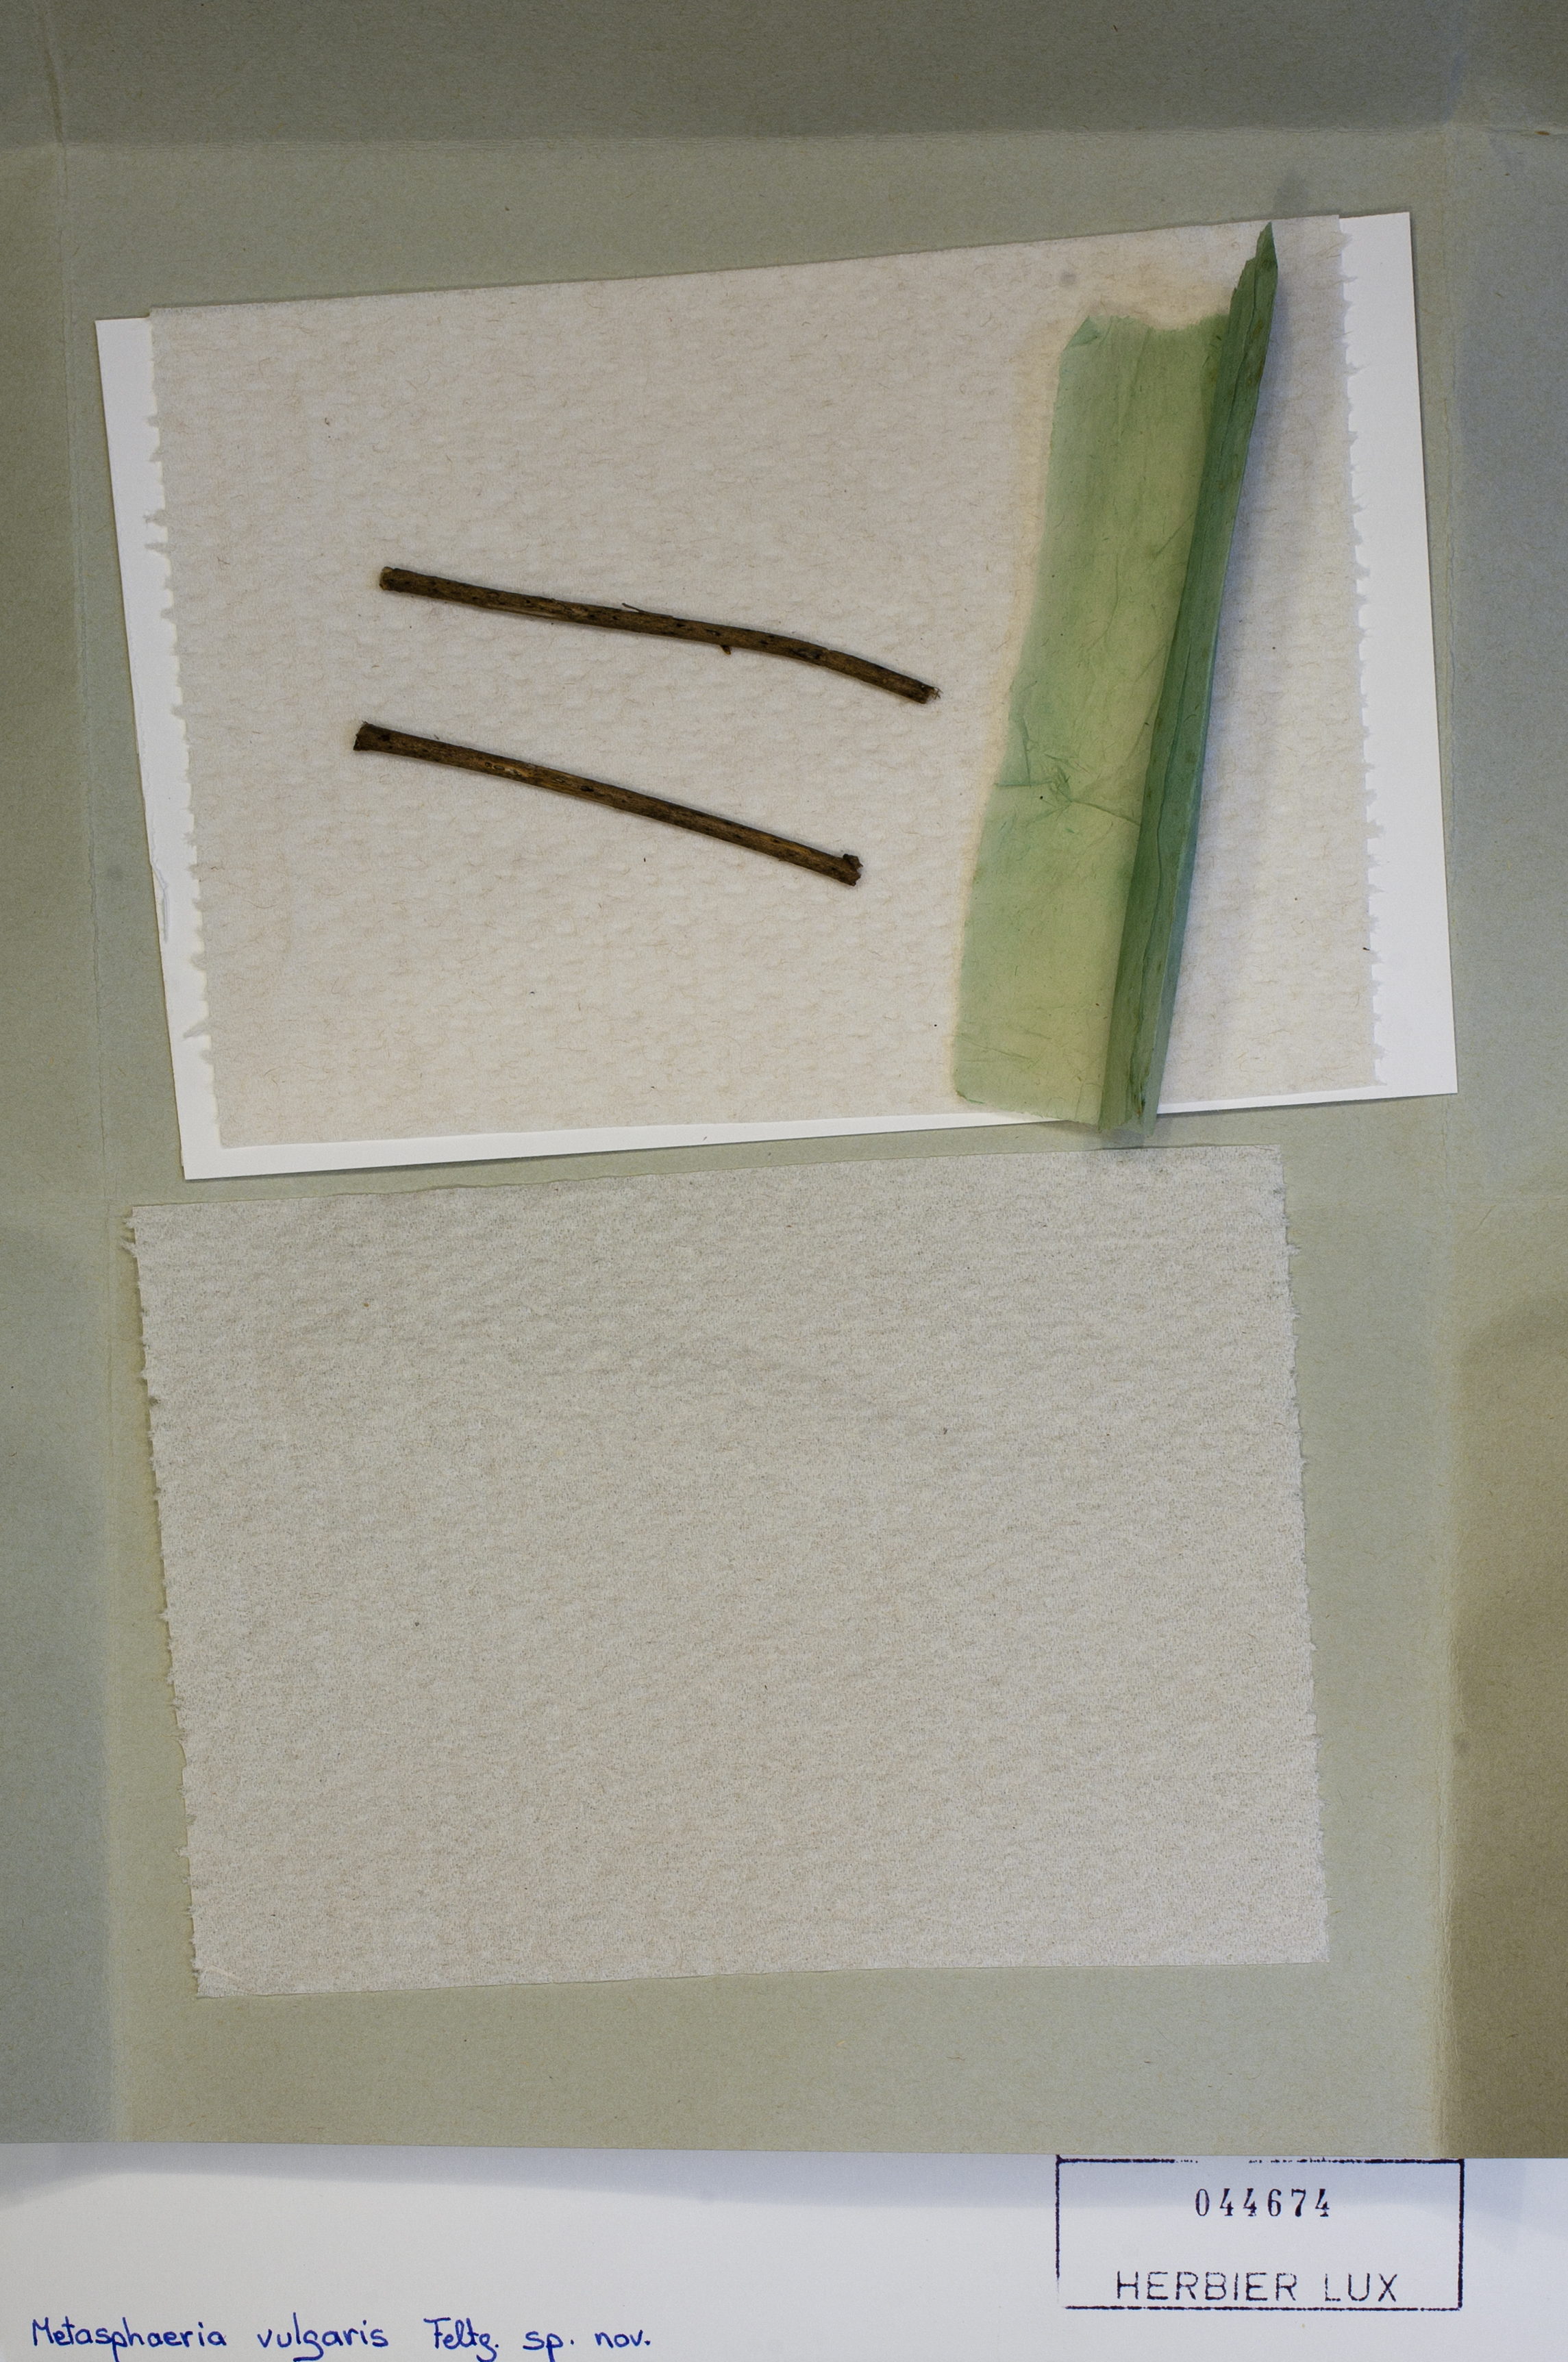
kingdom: Fungi
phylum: Ascomycota
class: Dothideomycetes
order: Dothideales
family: Saccotheciaceae
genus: Metasphaeria
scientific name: Metasphaeria vulgaris
